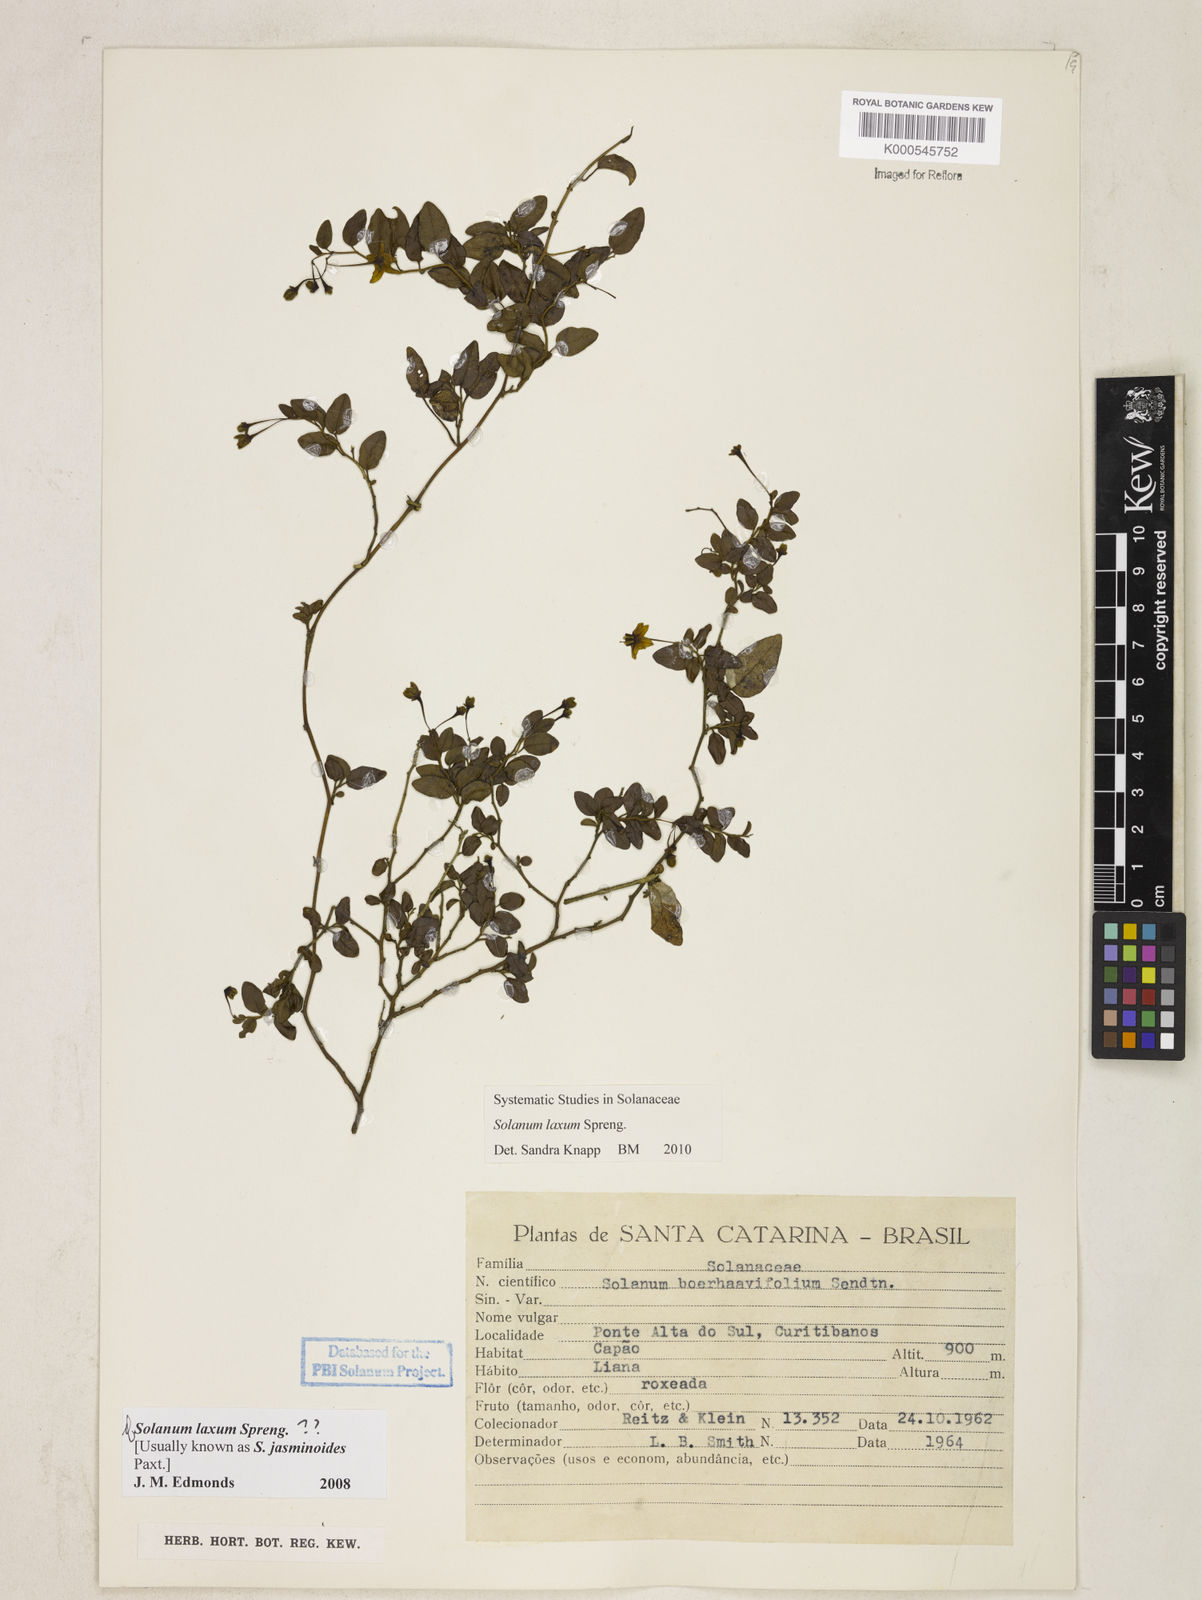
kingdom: Plantae
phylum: Tracheophyta
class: Magnoliopsida
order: Solanales
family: Solanaceae
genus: Solanum
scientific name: Solanum laxum
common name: Nightshade
